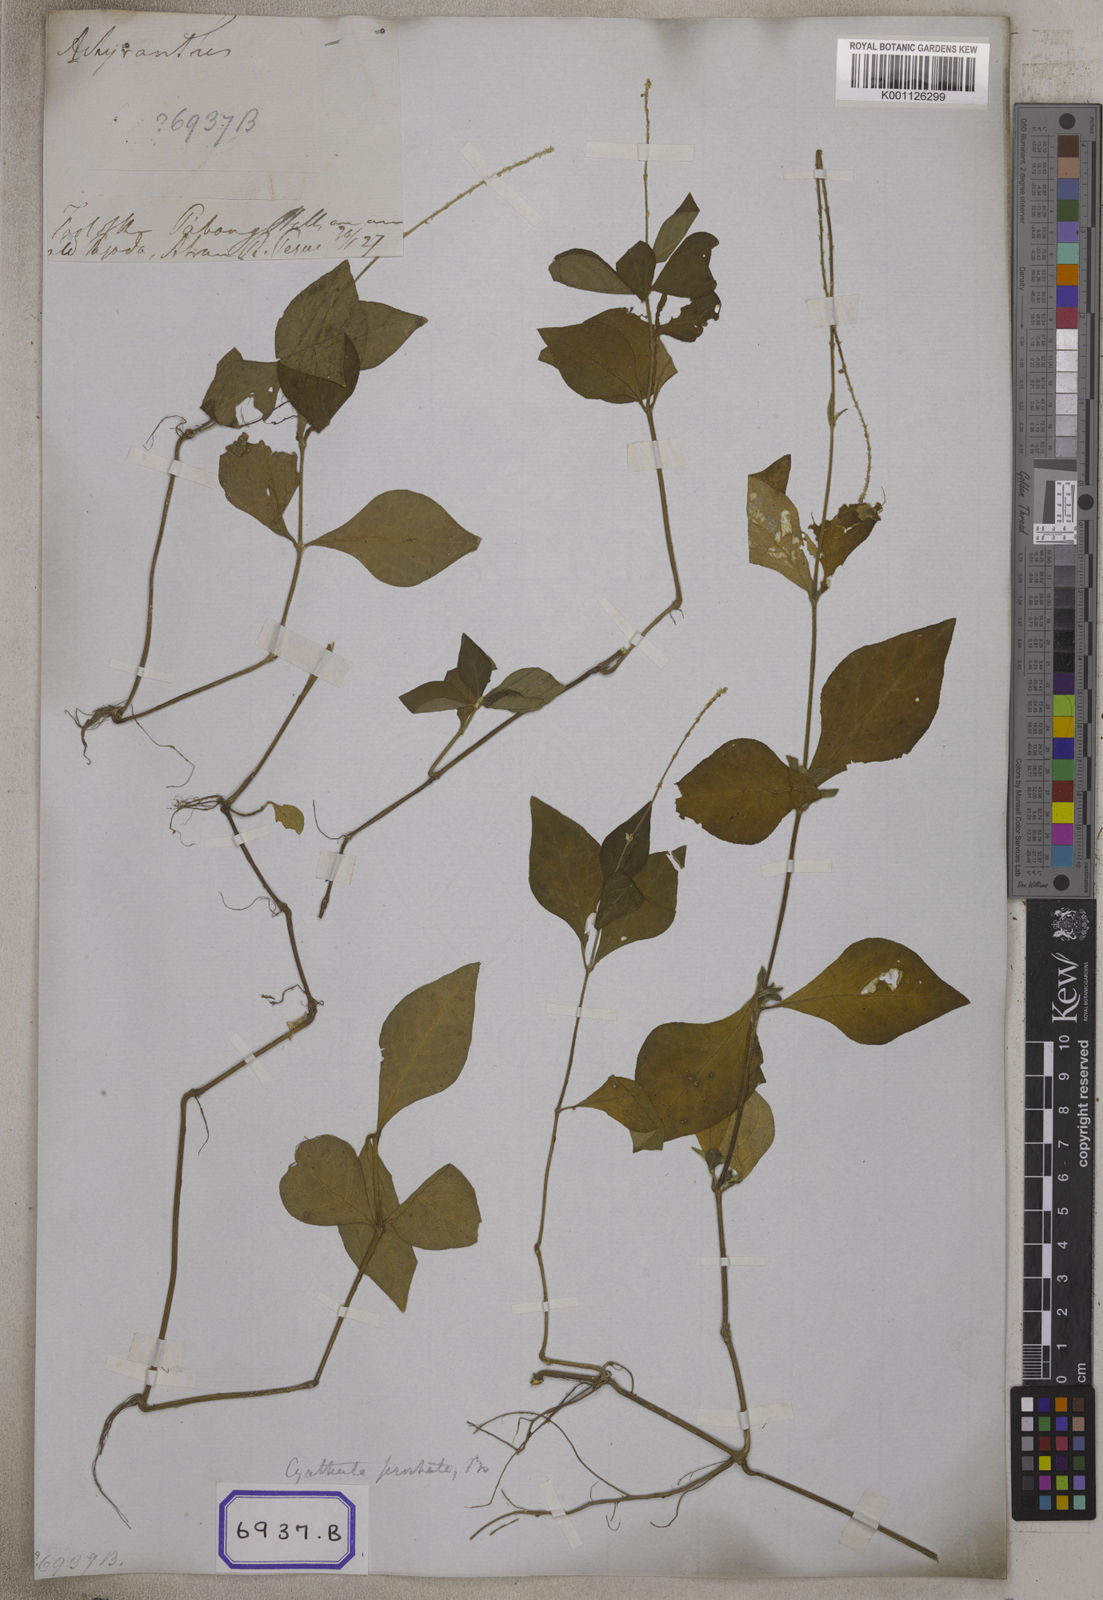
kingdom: Plantae
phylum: Tracheophyta
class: Magnoliopsida
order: Caryophyllales
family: Amaranthaceae
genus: Pupalia
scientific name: Pupalia
